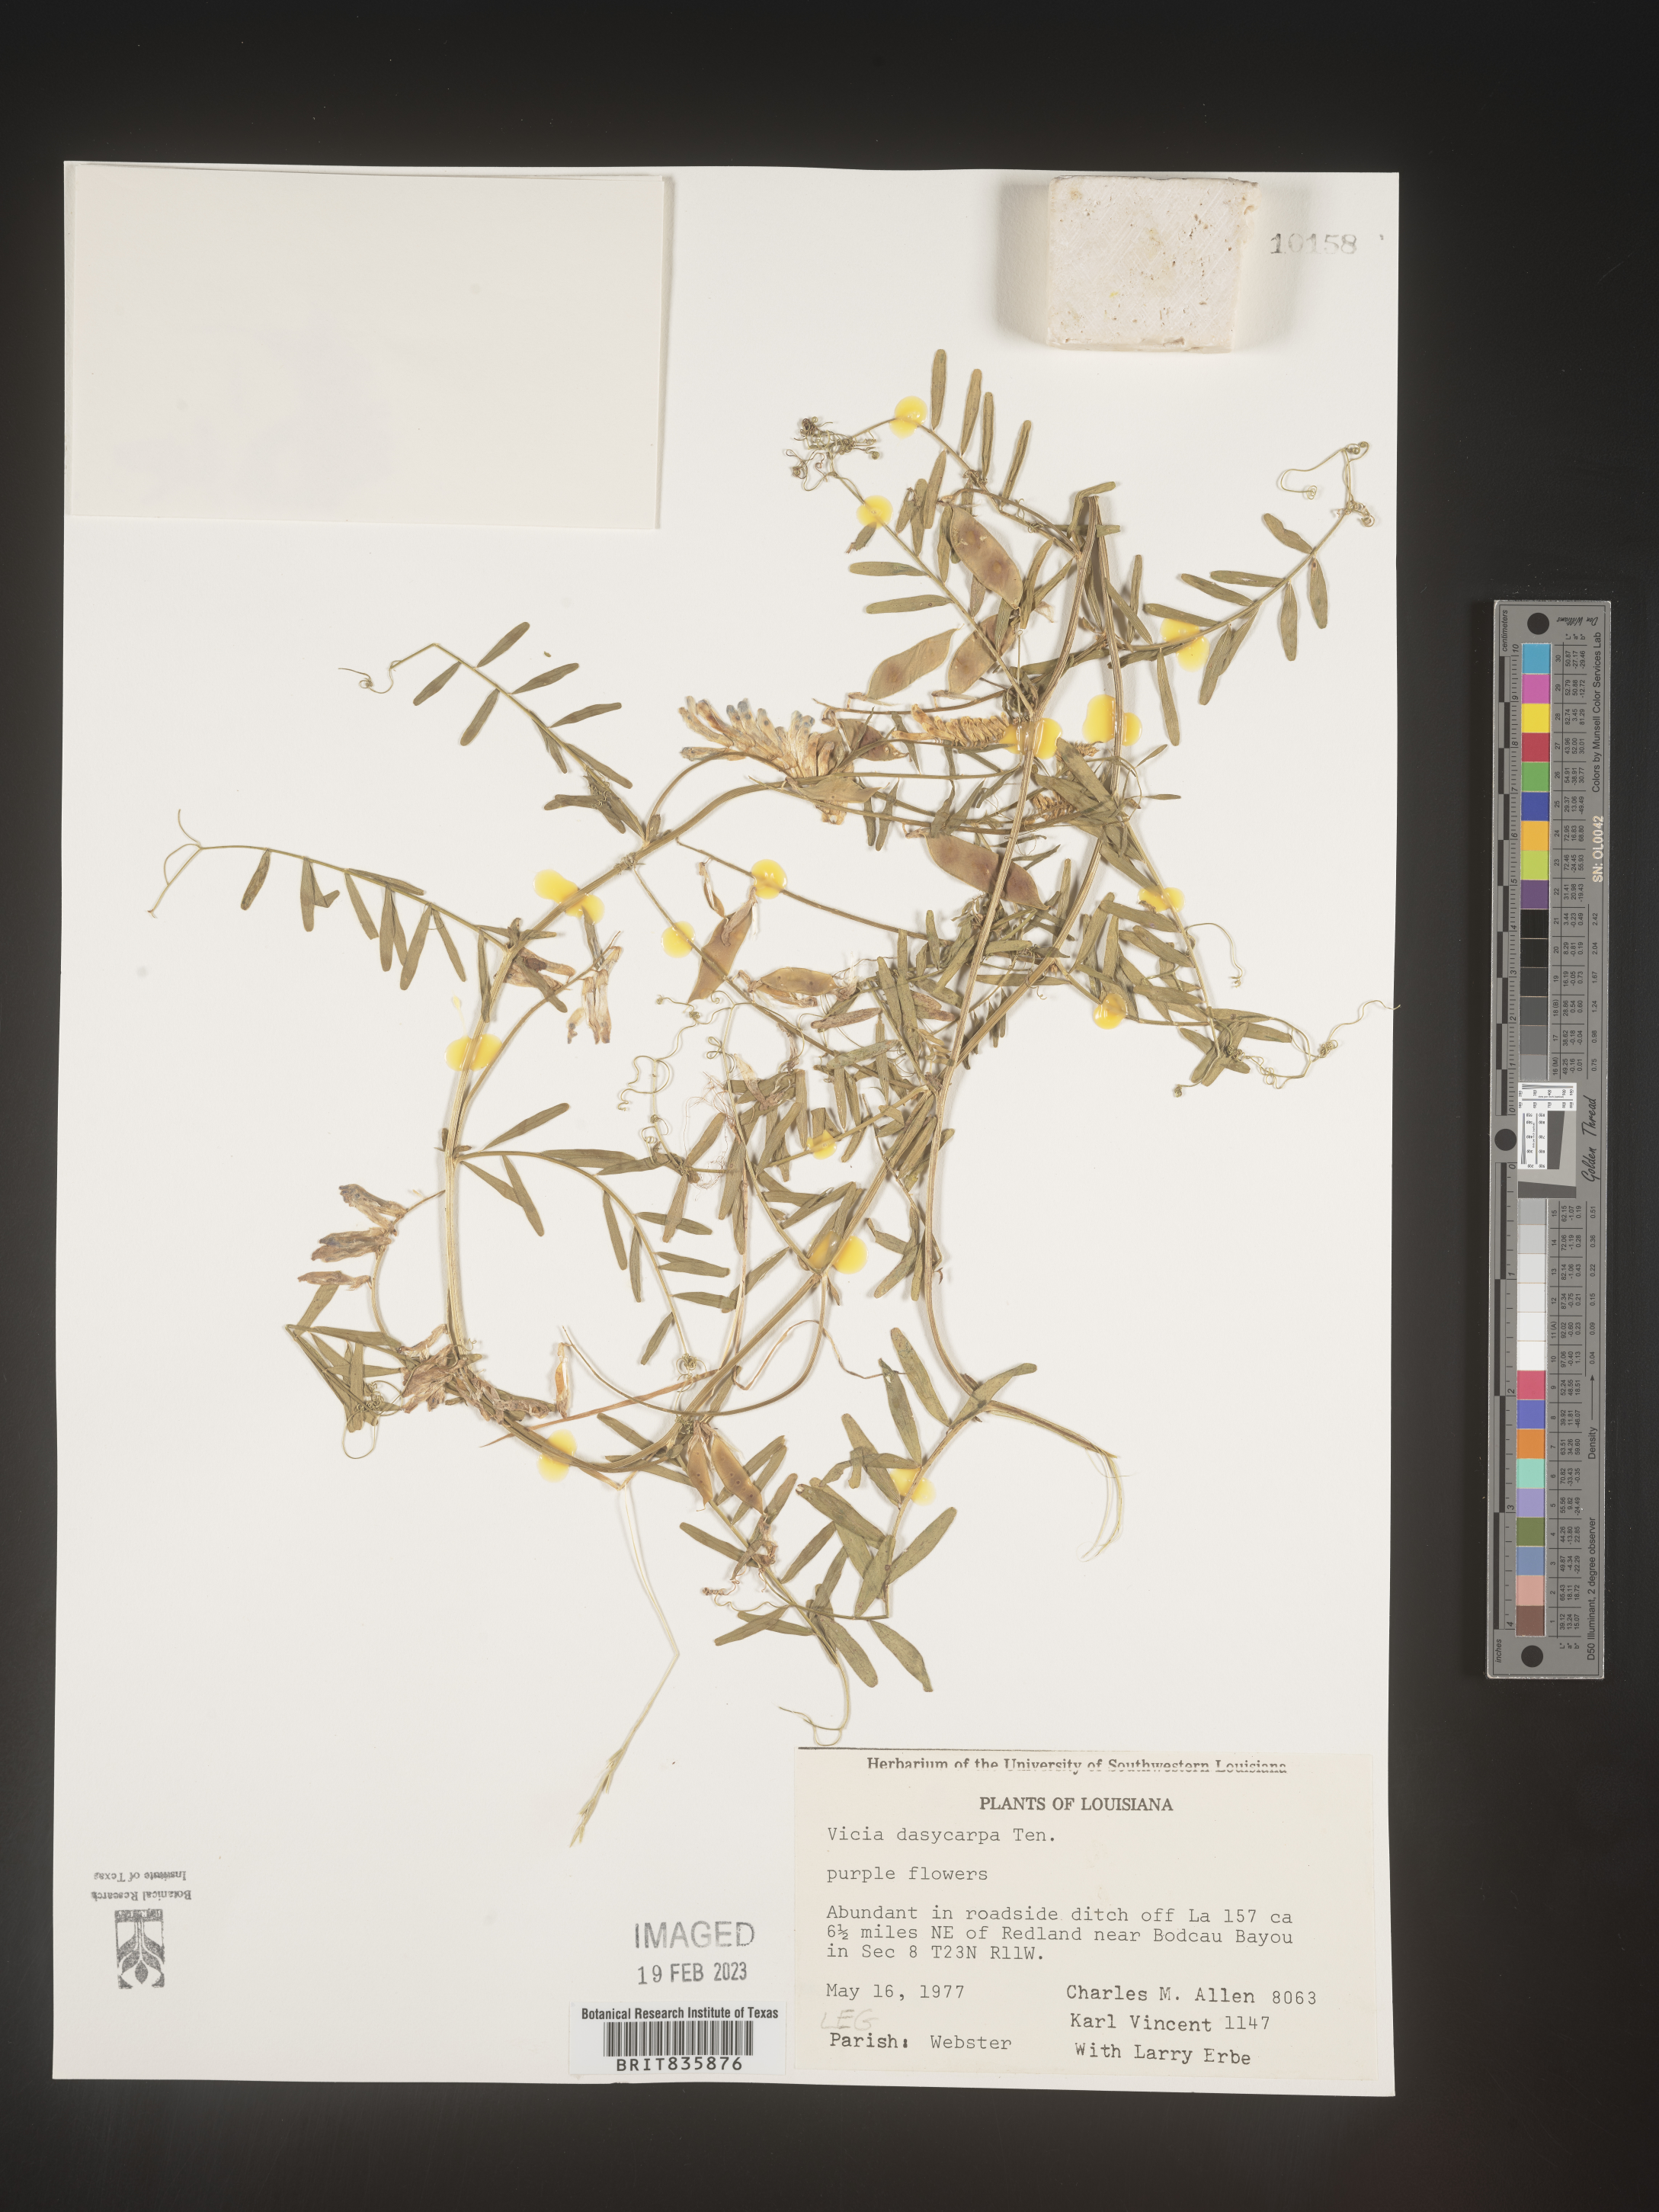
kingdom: Plantae
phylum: Tracheophyta
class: Magnoliopsida
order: Fabales
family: Fabaceae
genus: Vicia
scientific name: Vicia villosa
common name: Fodder vetch
